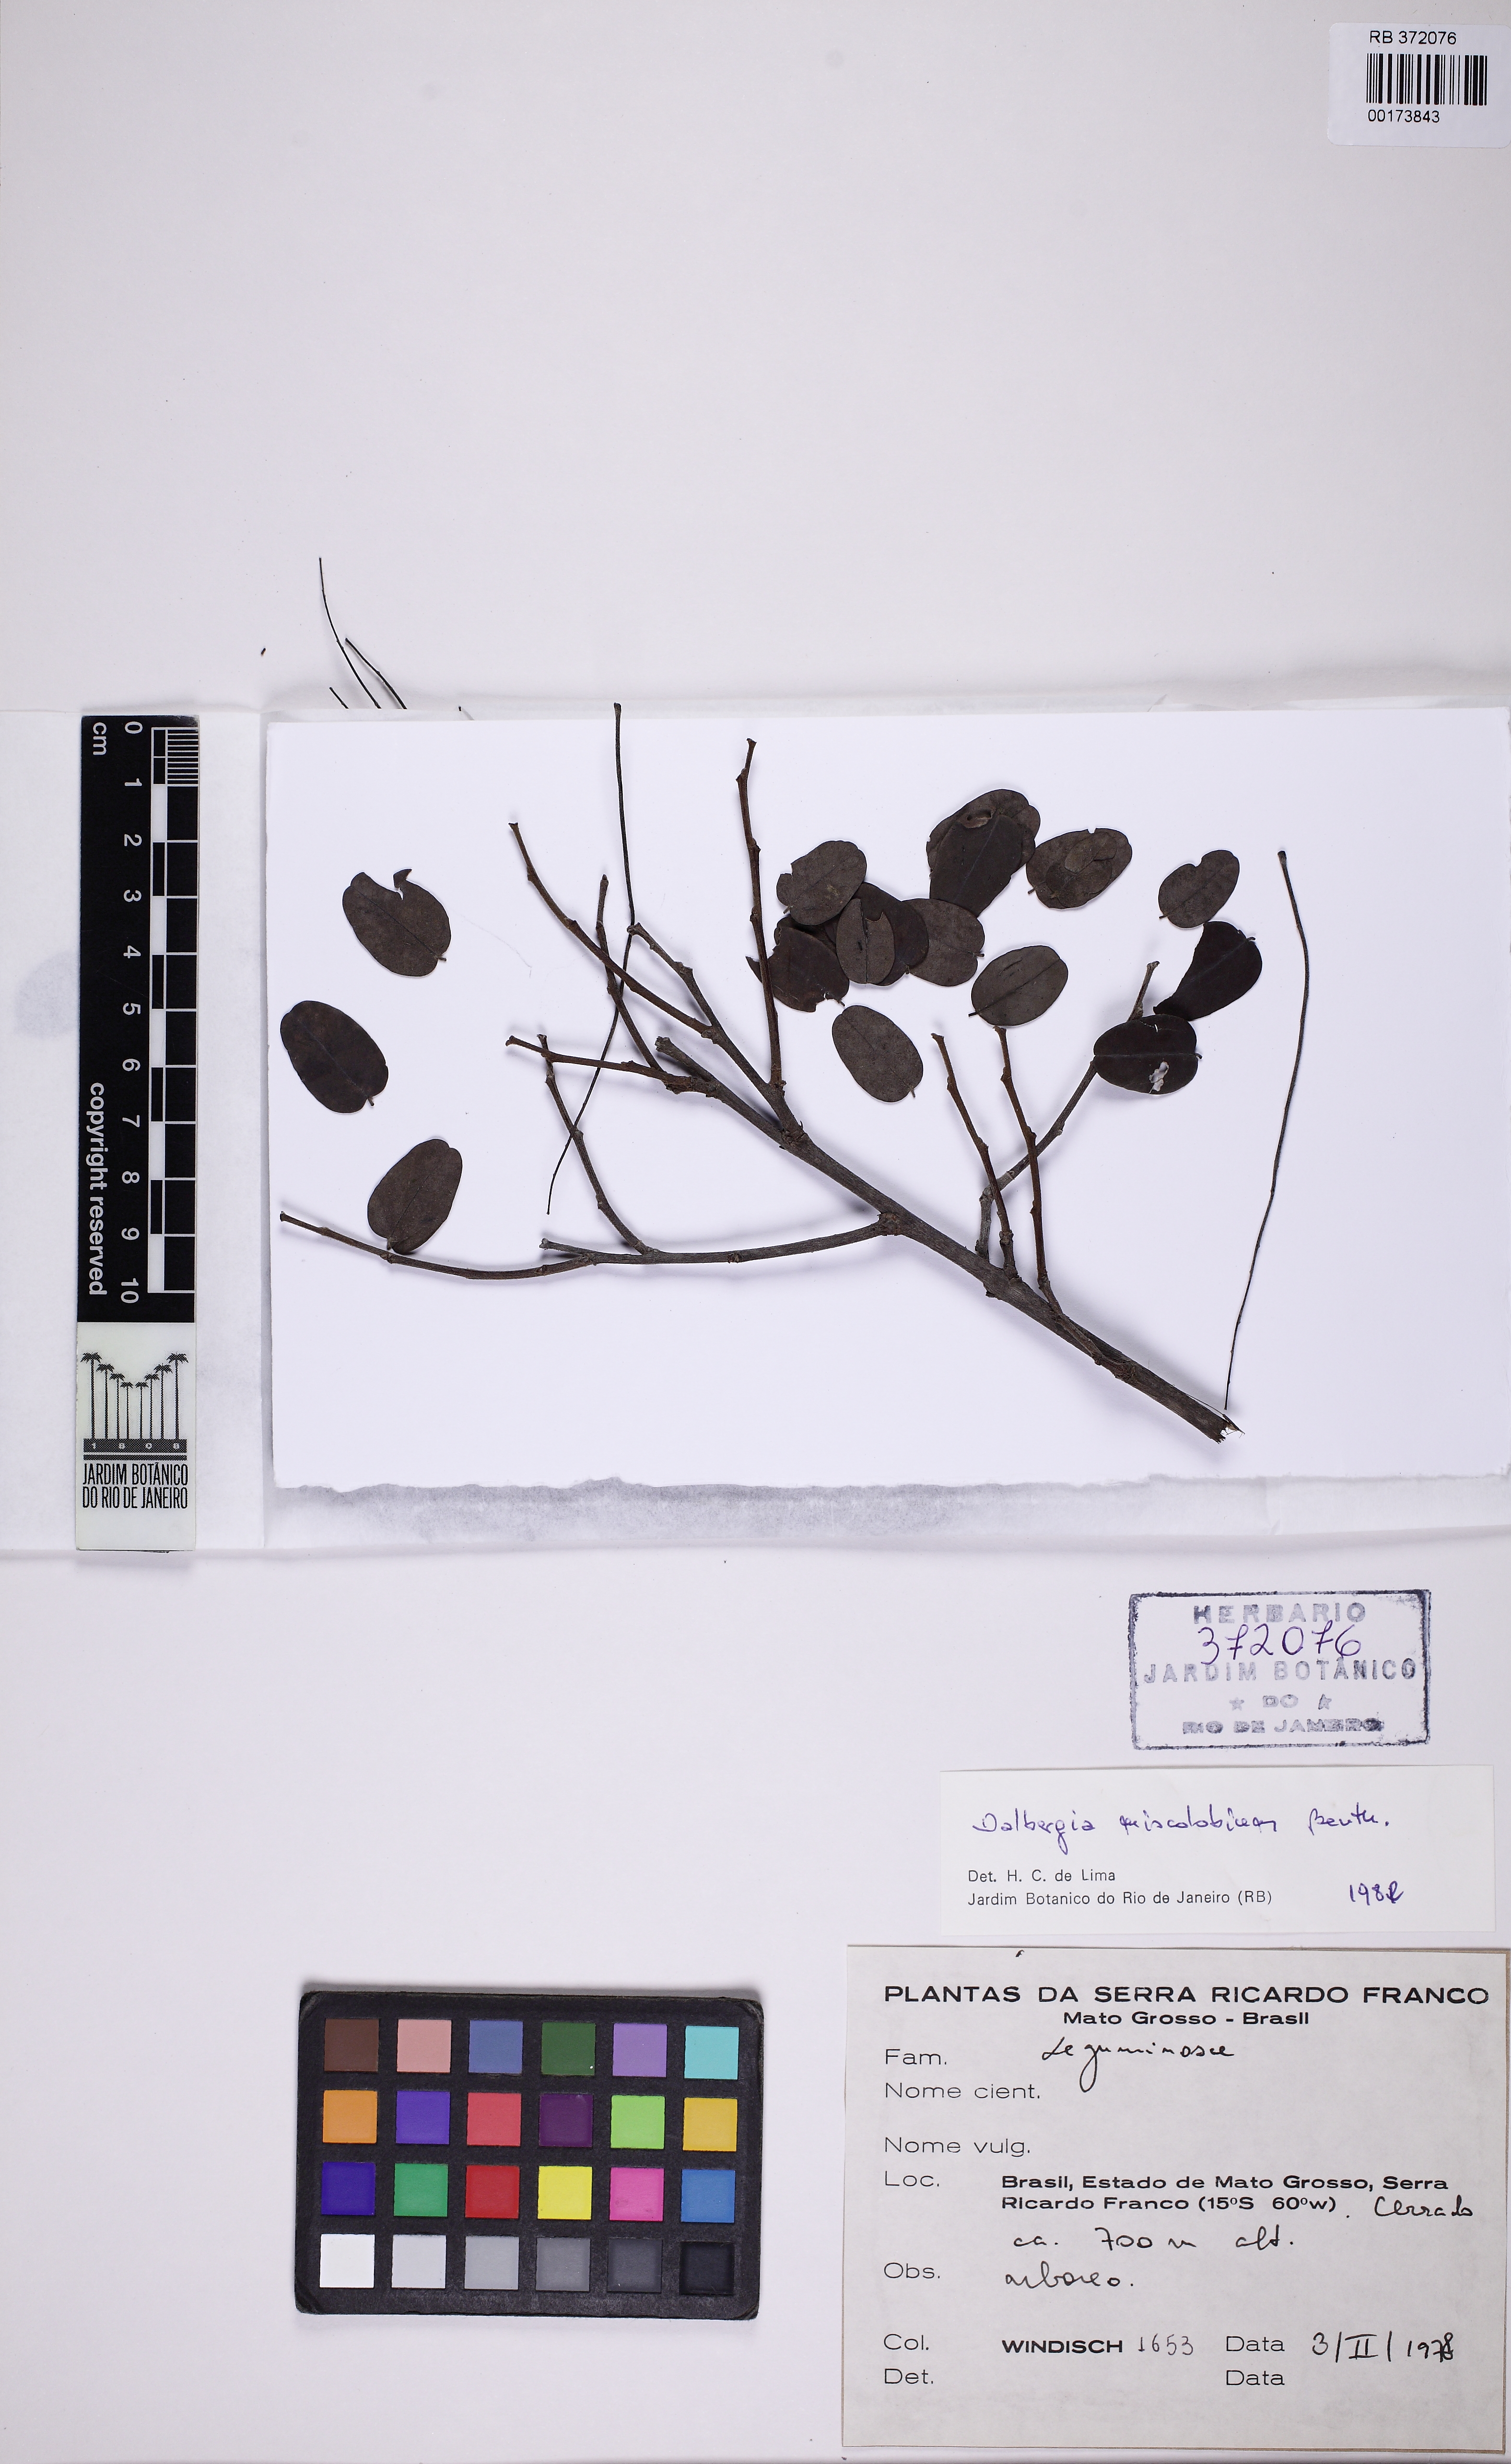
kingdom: Plantae
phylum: Tracheophyta
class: Magnoliopsida
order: Fabales
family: Fabaceae
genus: Dalbergia
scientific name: Dalbergia miscolobium
